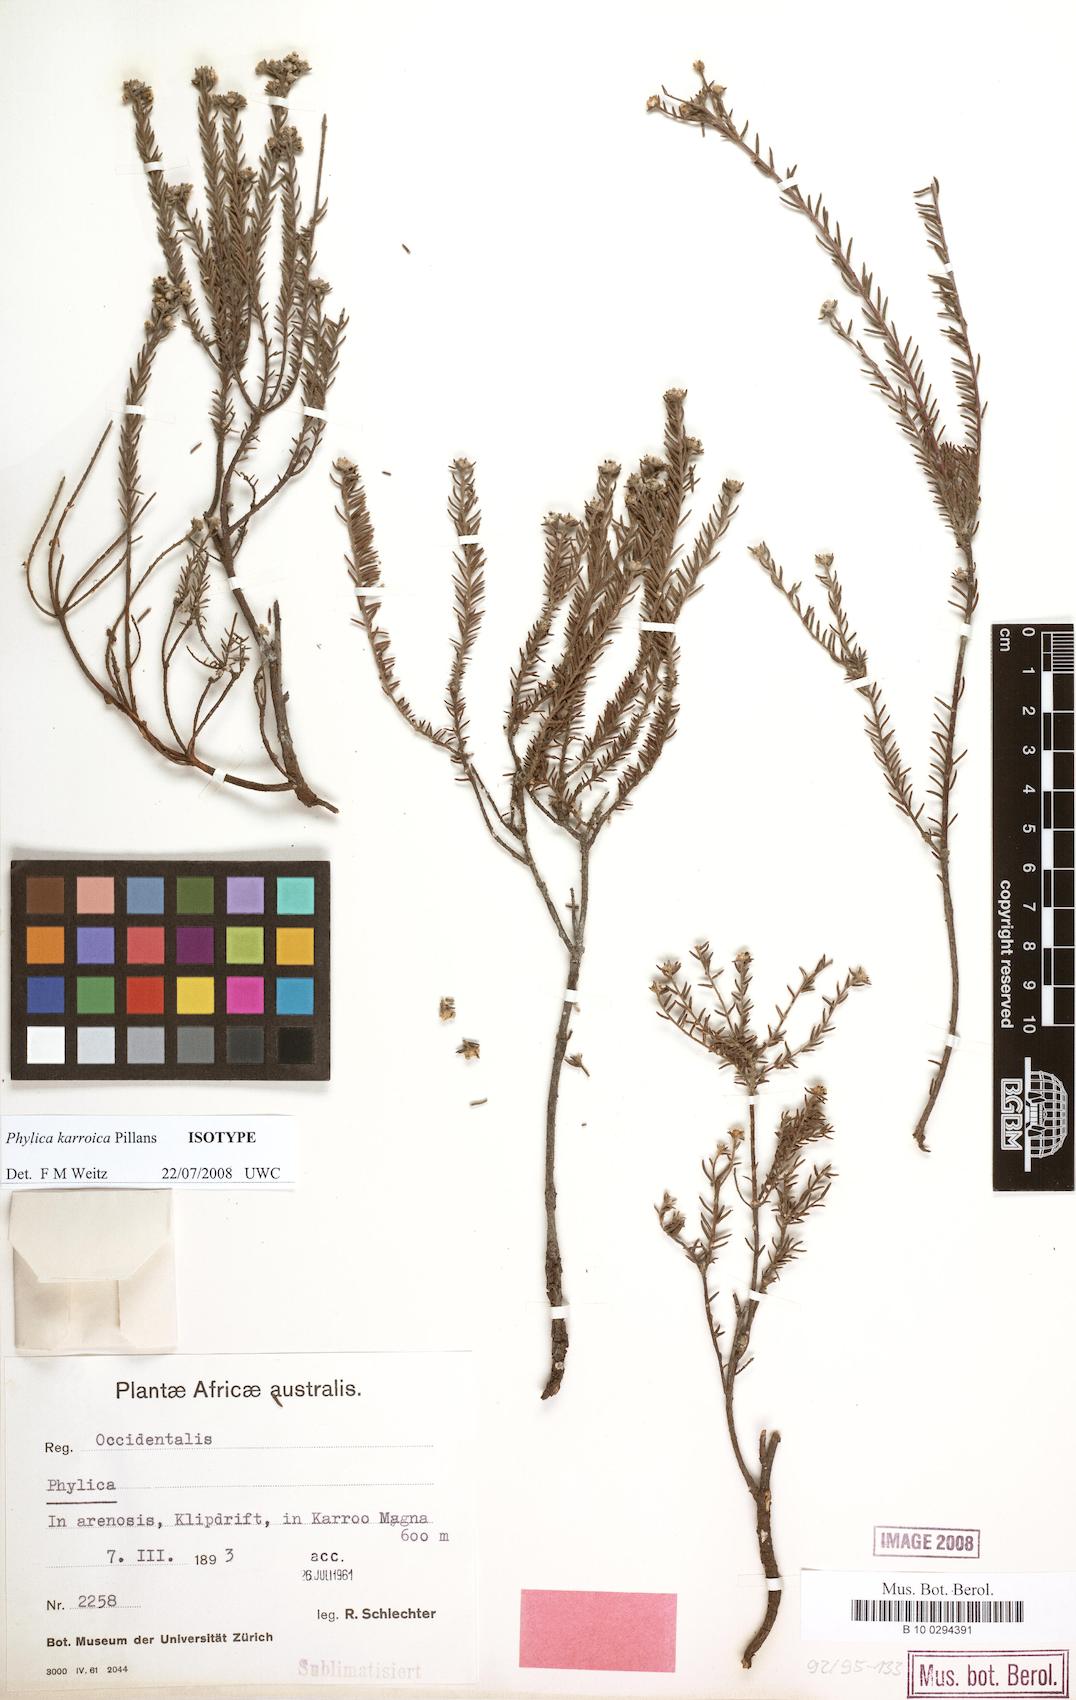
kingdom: Plantae
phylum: Tracheophyta
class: Magnoliopsida
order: Rosales
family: Rhamnaceae
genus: Phylica
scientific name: Phylica karroica
